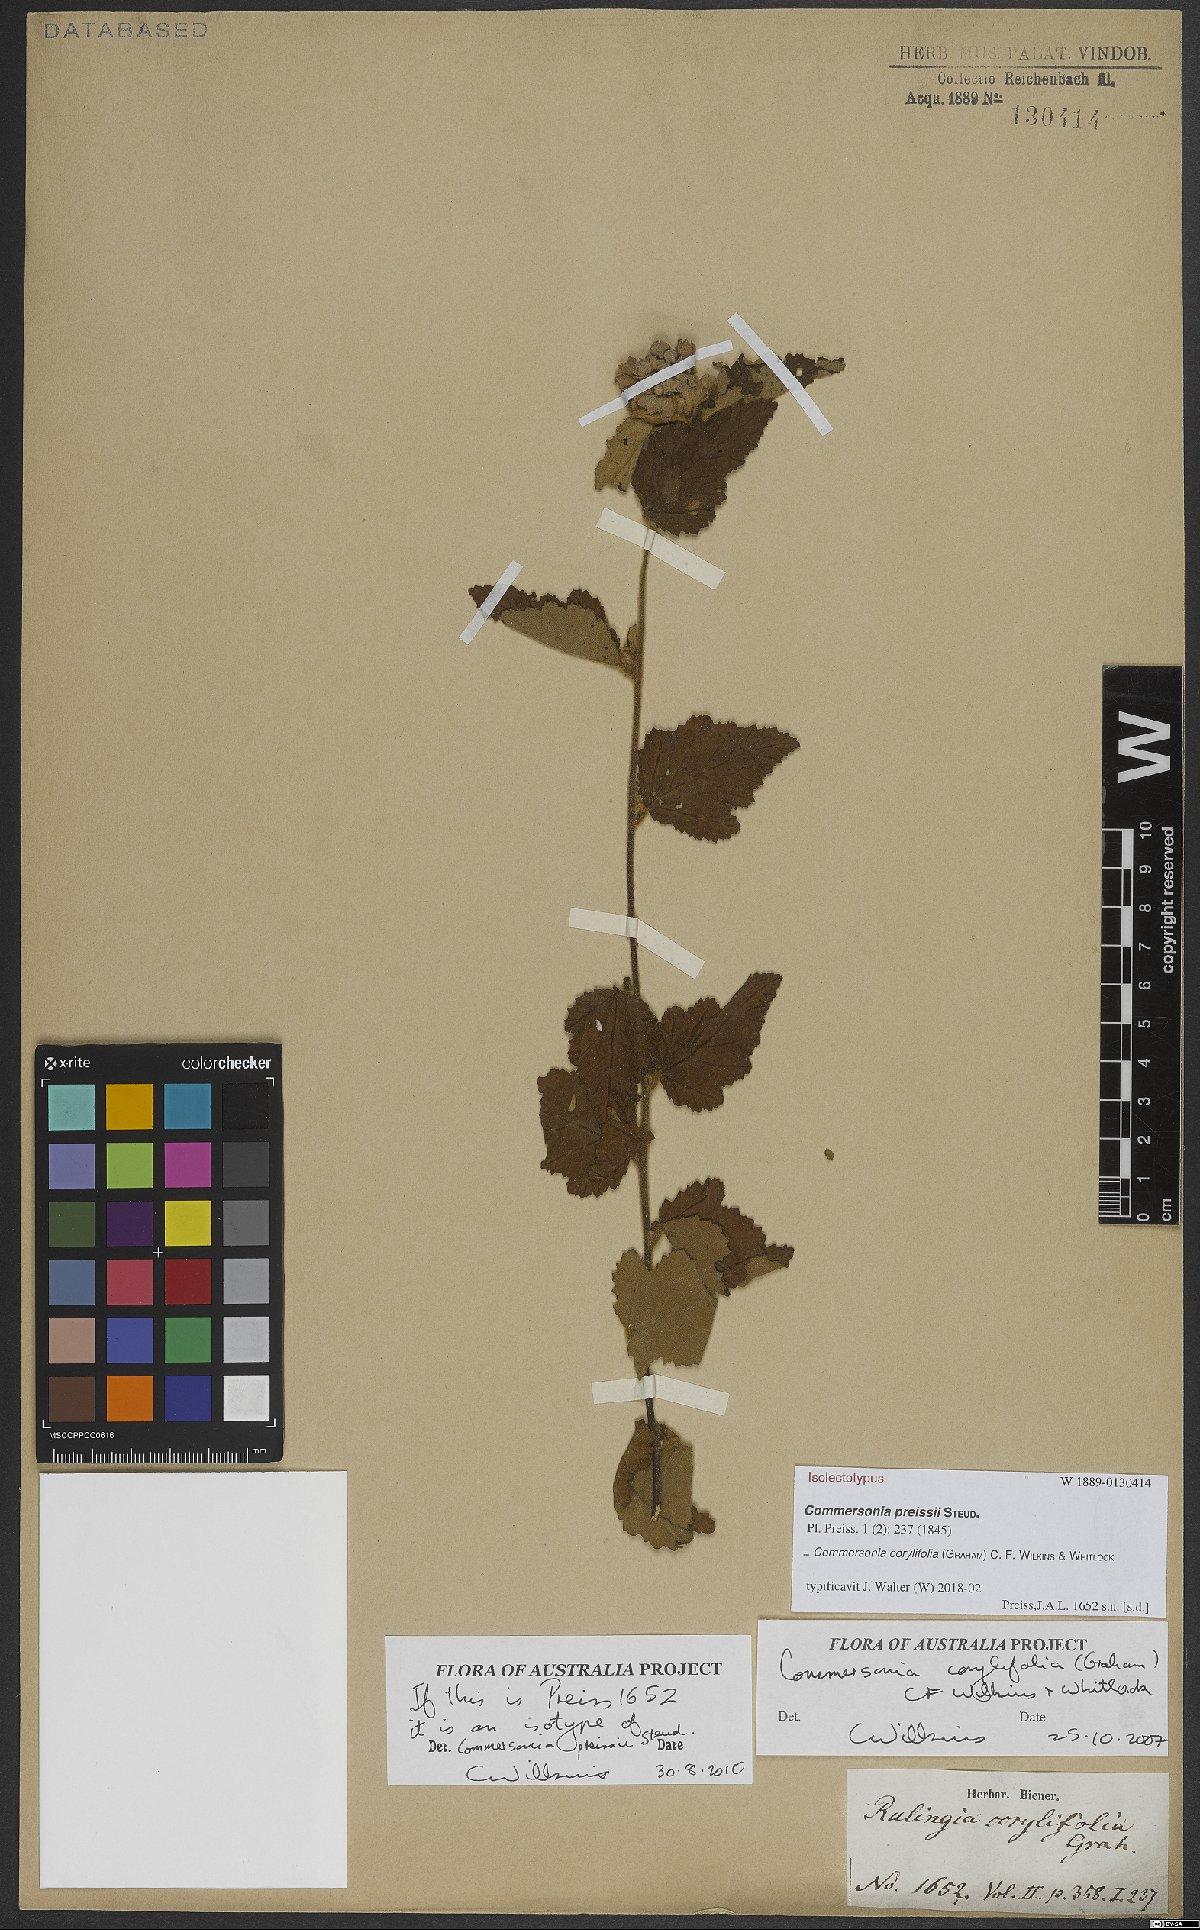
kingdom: Plantae
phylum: Tracheophyta
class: Magnoliopsida
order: Malvales
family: Malvaceae
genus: Commersonia
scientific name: Commersonia corylifolia
